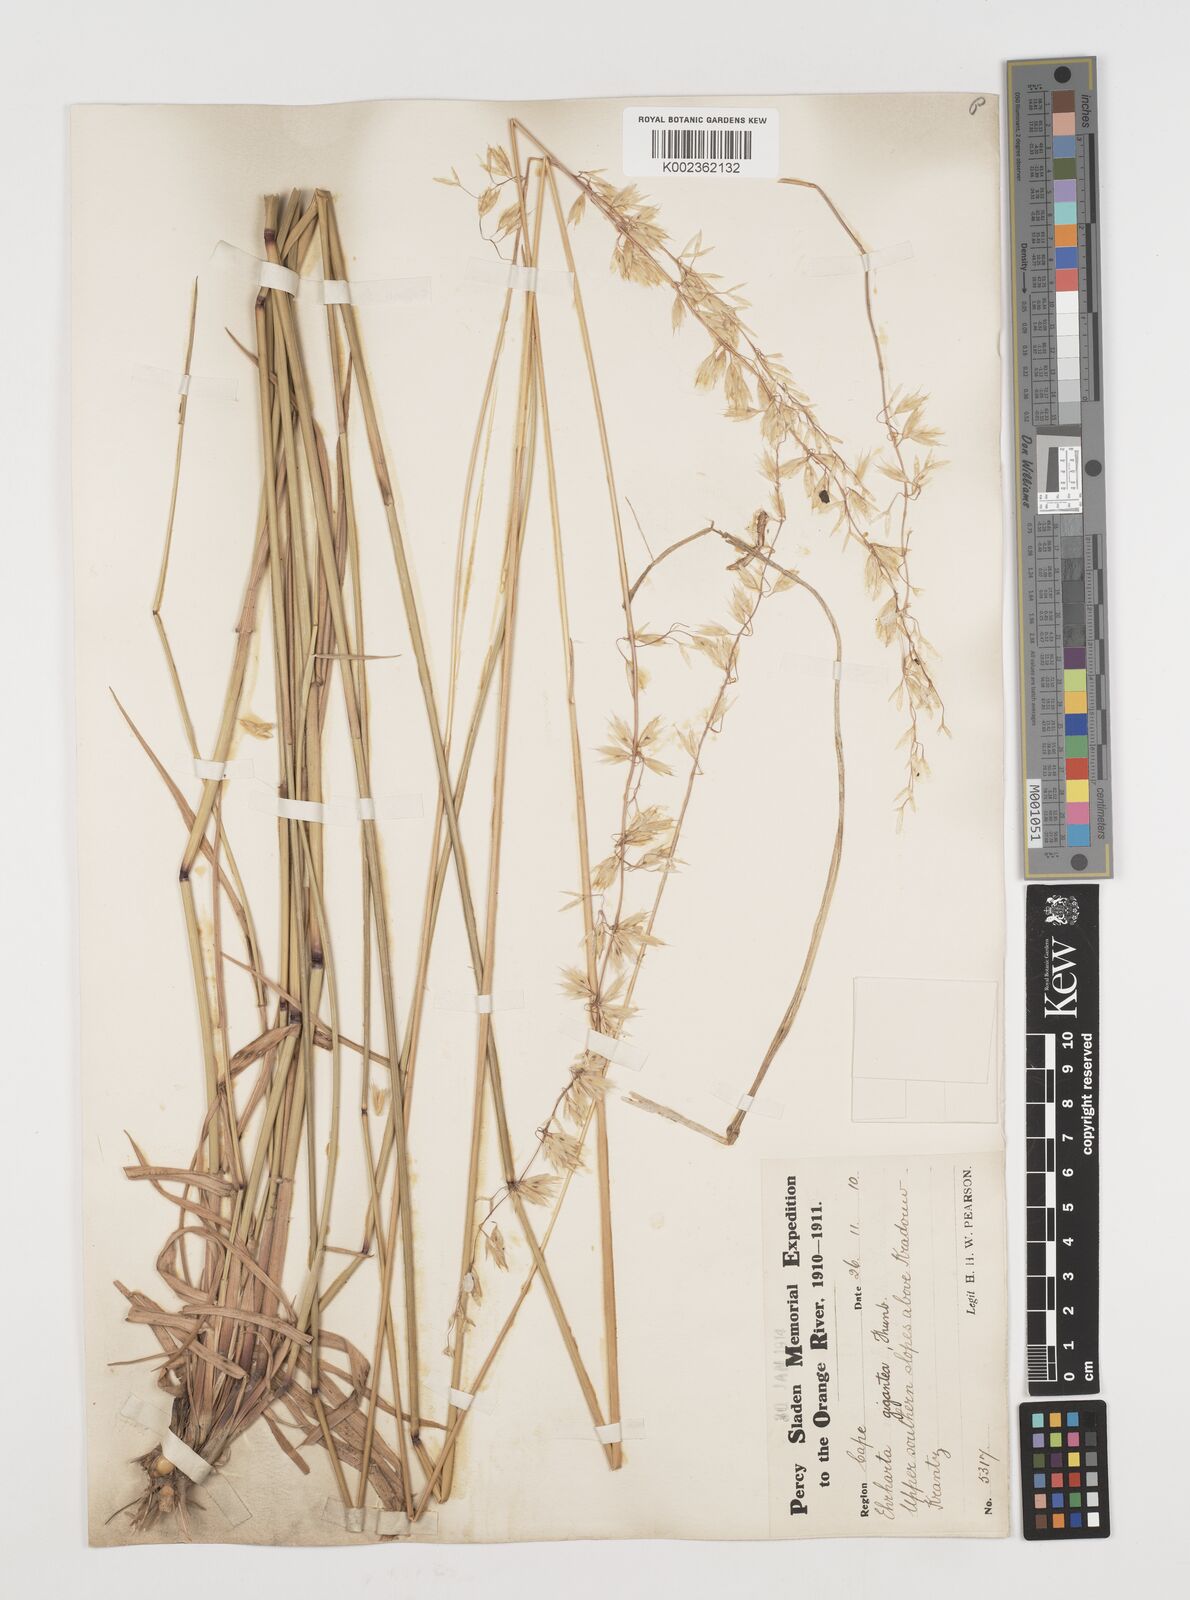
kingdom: Plantae
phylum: Tracheophyta
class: Liliopsida
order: Poales
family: Poaceae
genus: Ehrharta
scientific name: Ehrharta thunbergii
